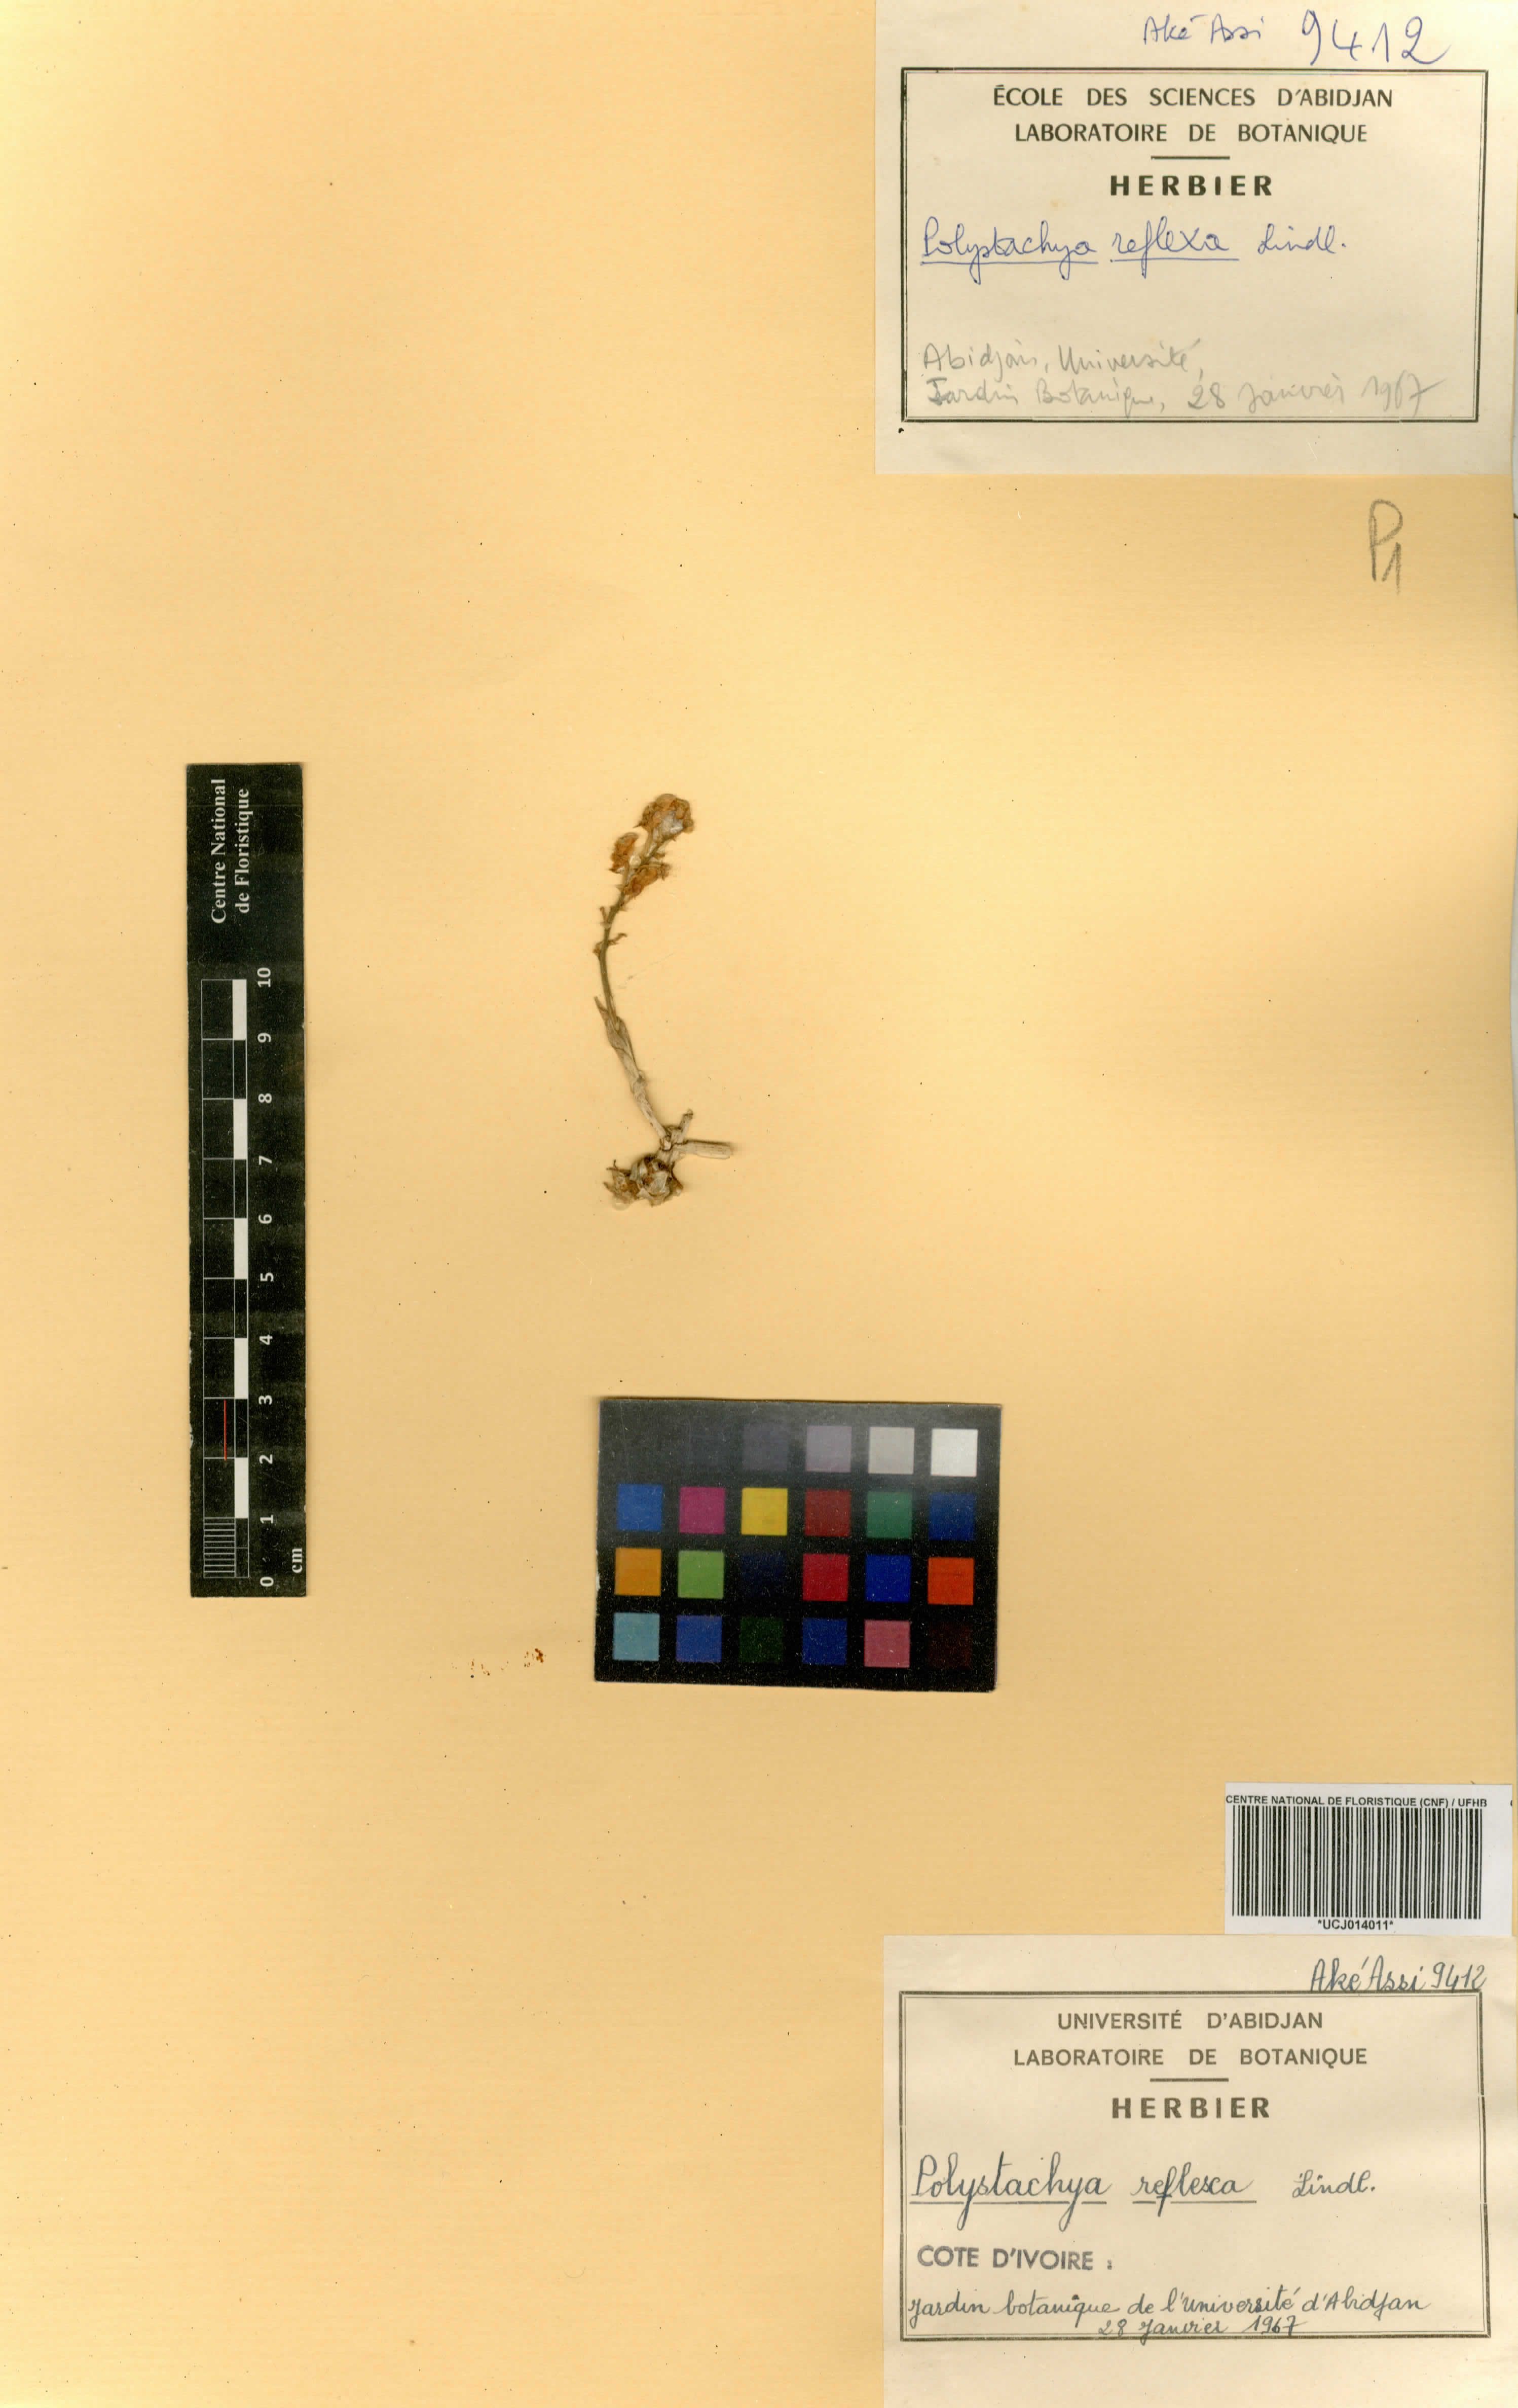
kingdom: Plantae
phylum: Tracheophyta
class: Liliopsida
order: Asparagales
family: Orchidaceae
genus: Polystachya
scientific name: Polystachya reflexa
